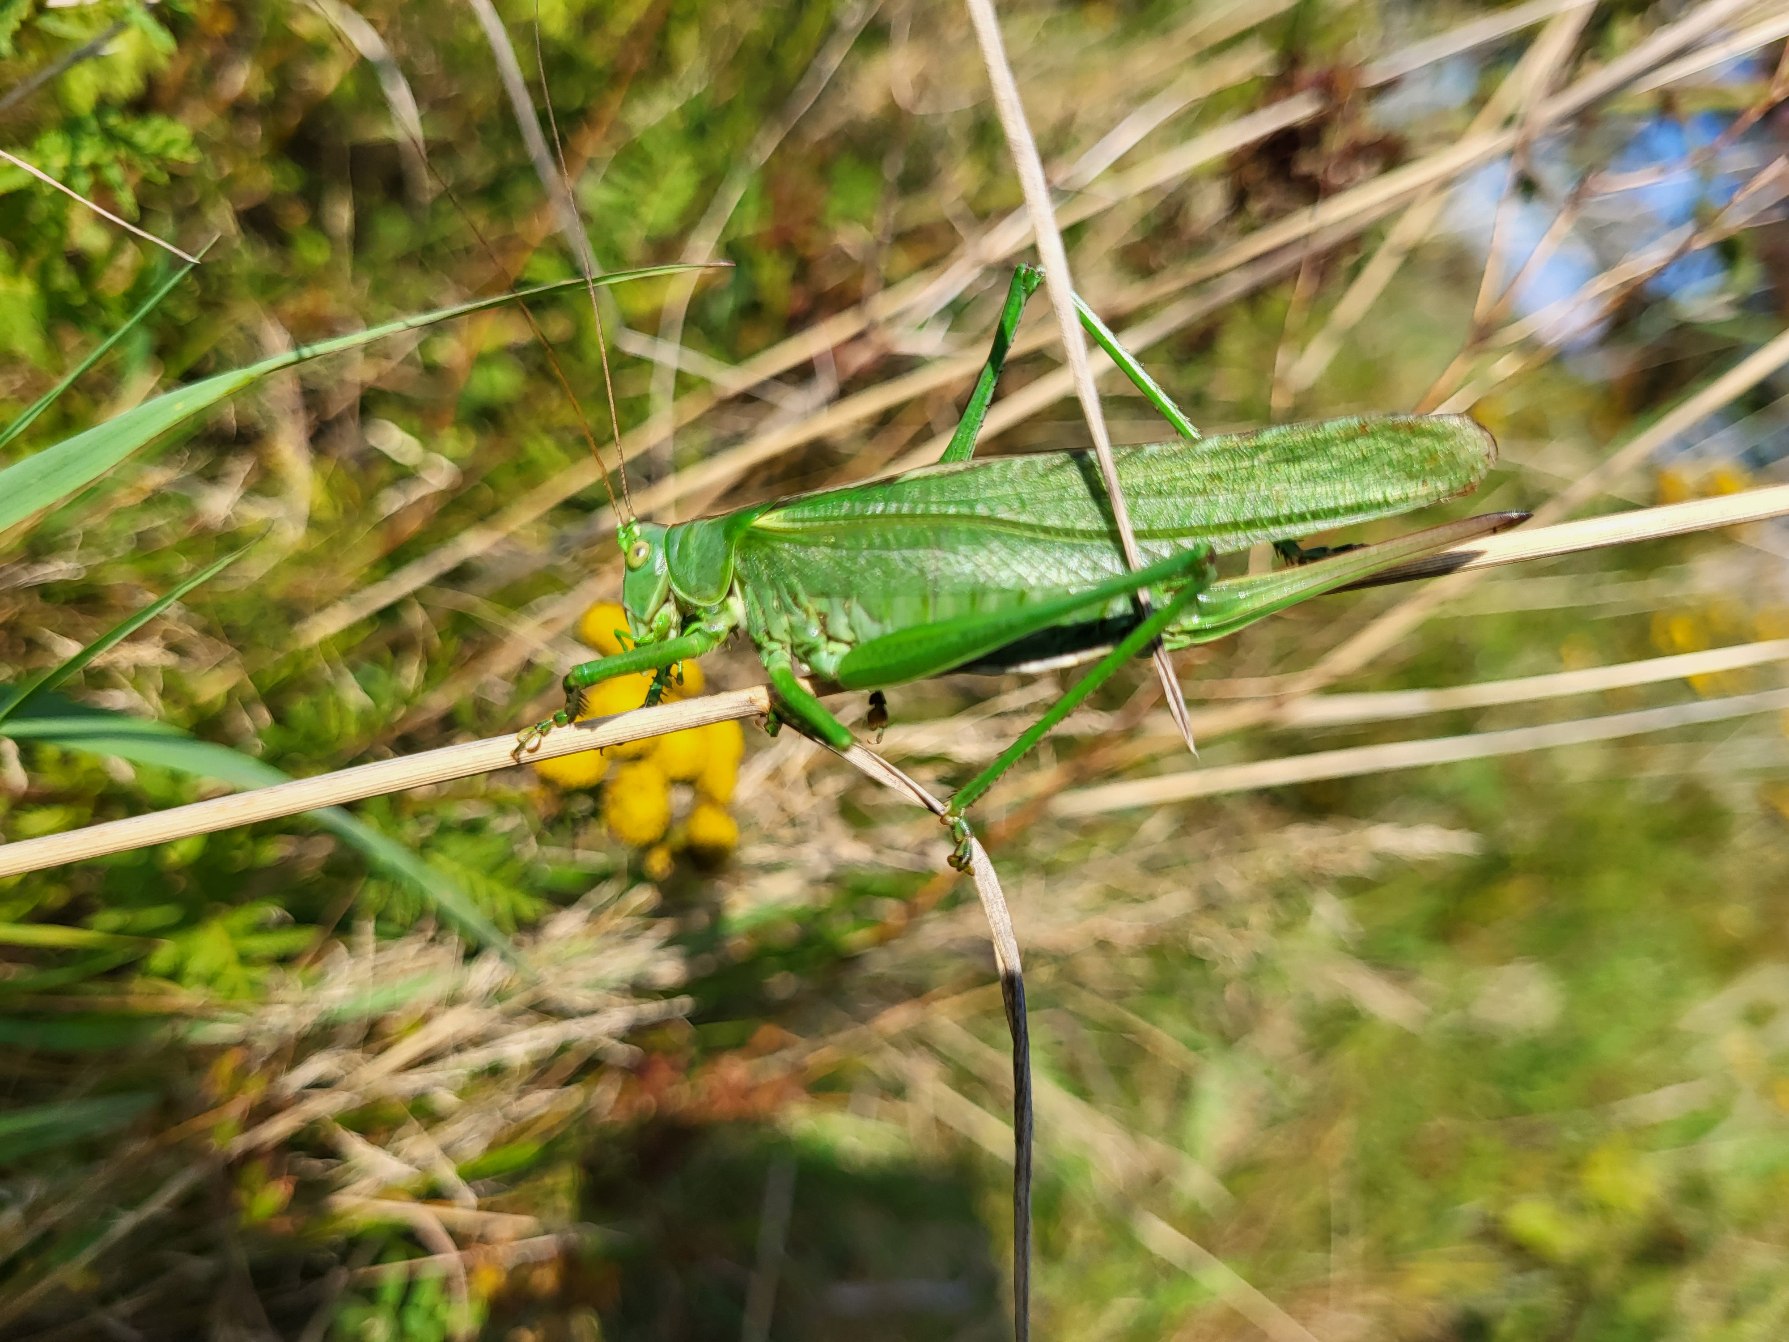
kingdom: Animalia
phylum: Arthropoda
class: Insecta
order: Orthoptera
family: Tettigoniidae
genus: Tettigonia
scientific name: Tettigonia viridissima
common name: Stor grøn løvgræshoppe
